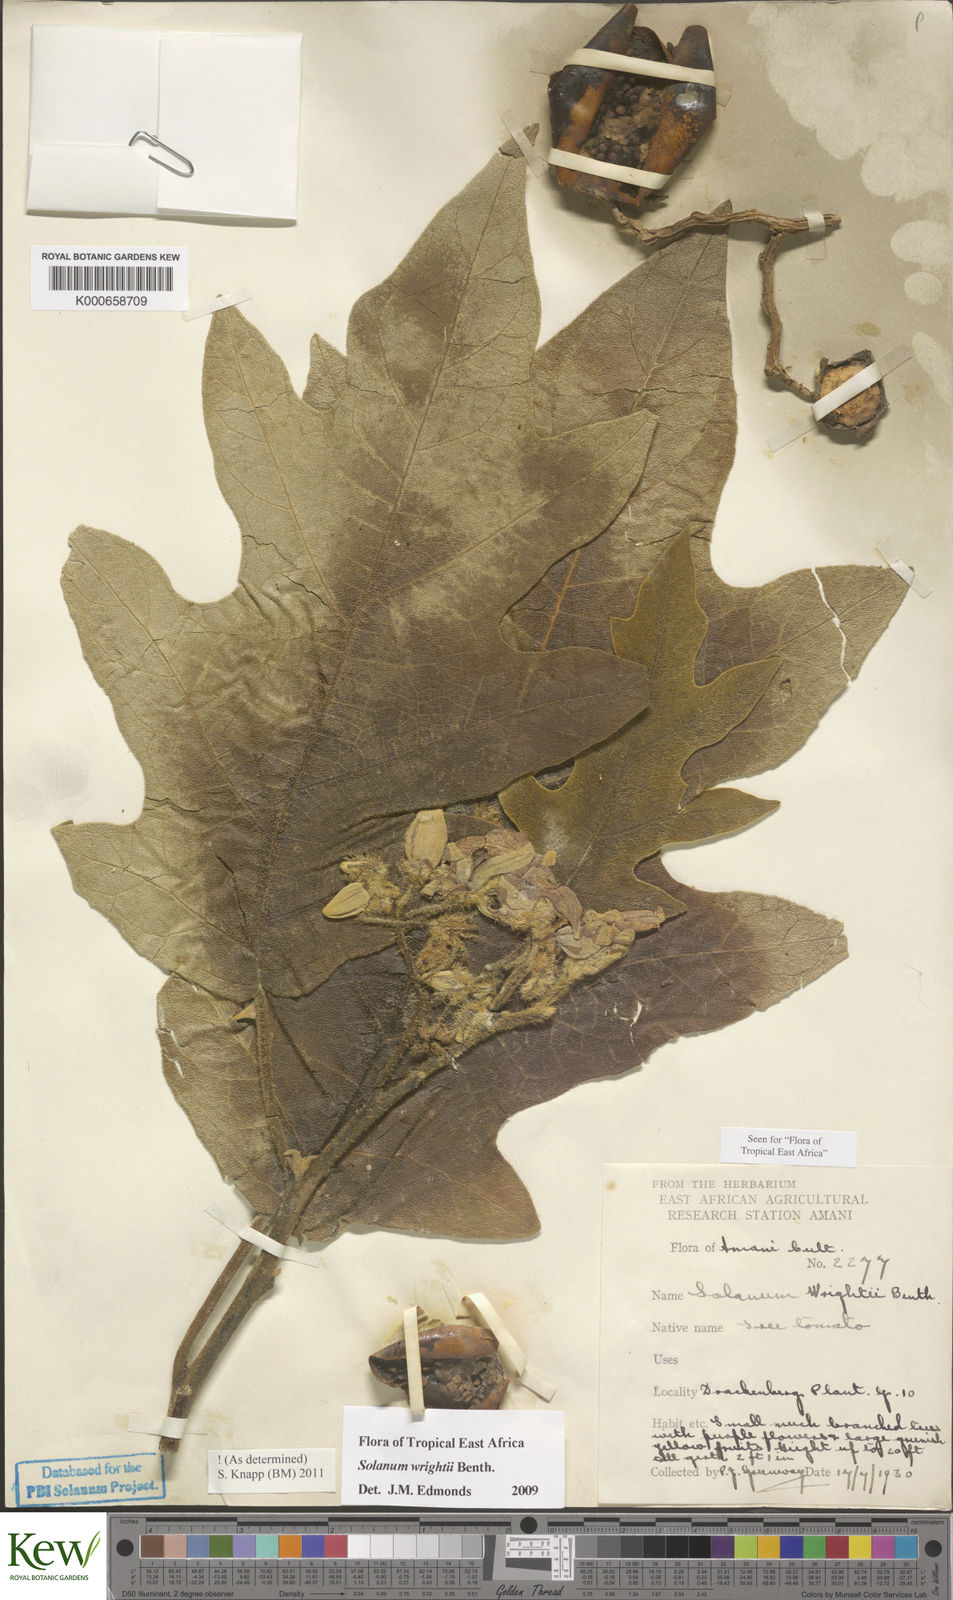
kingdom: Plantae
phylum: Tracheophyta
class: Magnoliopsida
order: Solanales
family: Solanaceae
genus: Solanum
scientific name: Solanum wrightii
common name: Brazilian potato-tree
